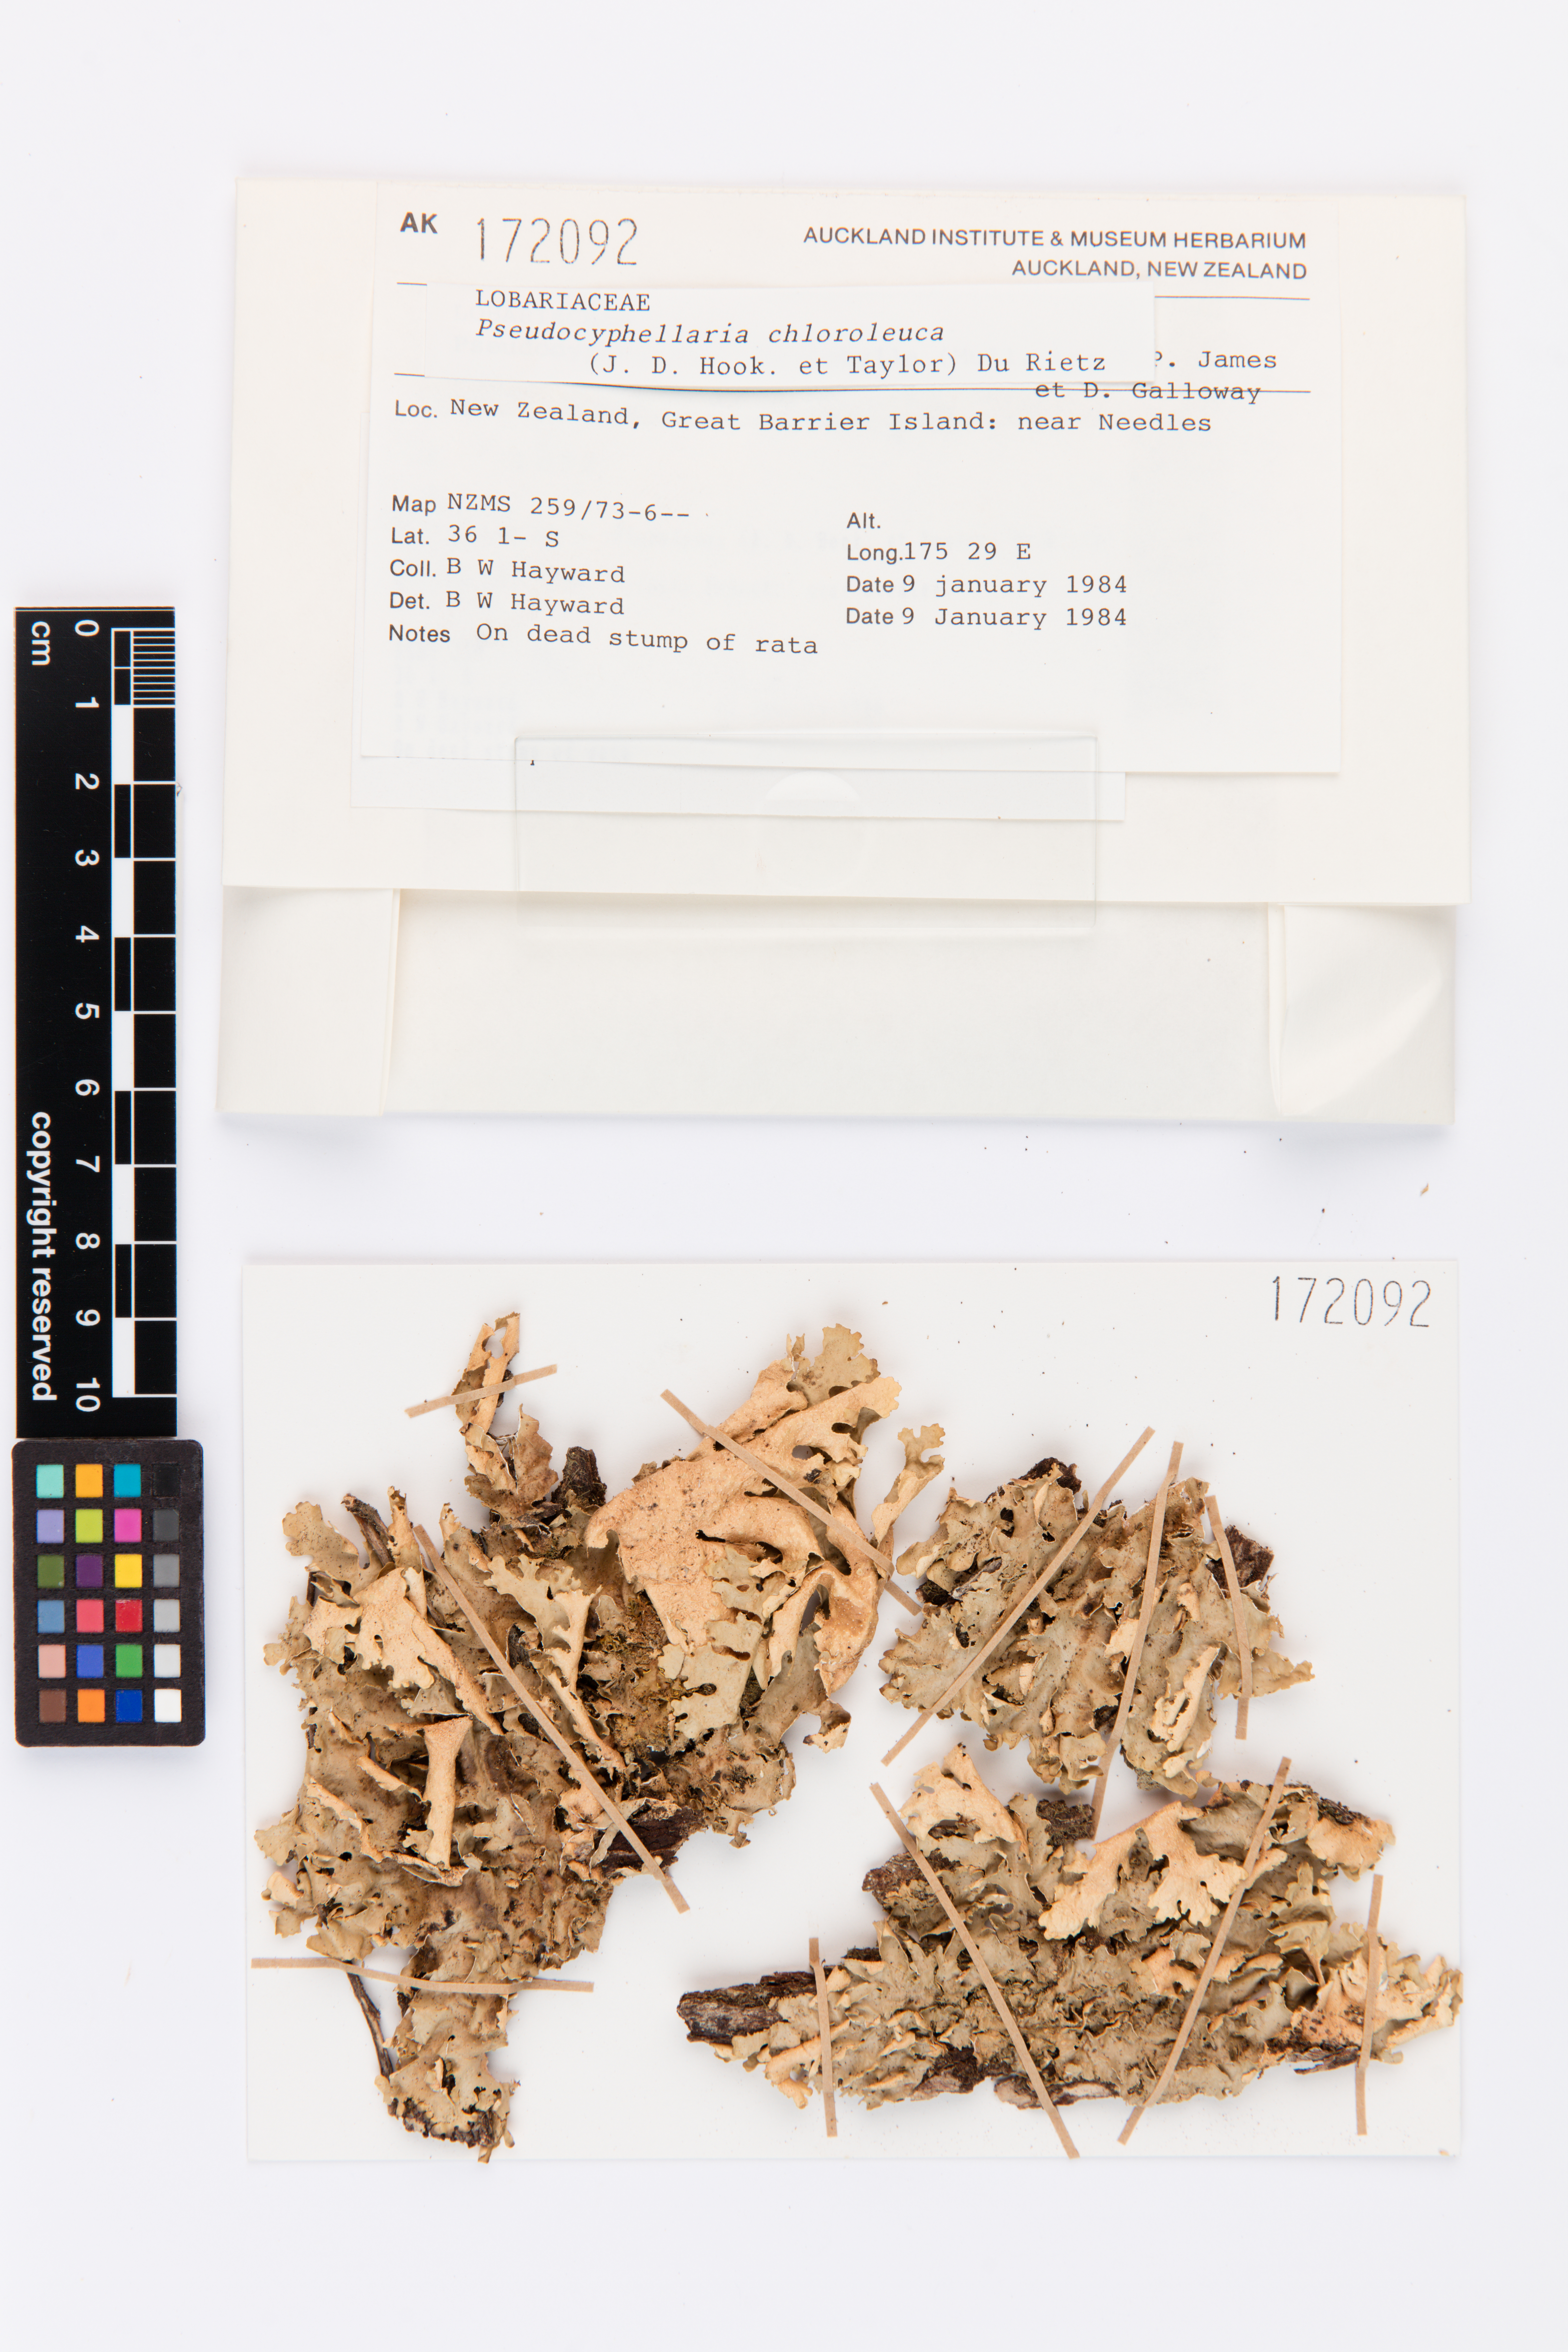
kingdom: Fungi
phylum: Ascomycota
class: Lecanoromycetes
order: Peltigerales
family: Lobariaceae
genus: Pseudocyphellaria
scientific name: Pseudocyphellaria chloroleuca
